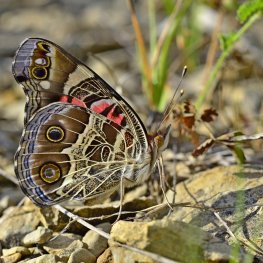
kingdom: Animalia
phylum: Arthropoda
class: Insecta
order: Lepidoptera
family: Nymphalidae
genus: Vanessa
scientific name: Vanessa virginiensis
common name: American Lady
